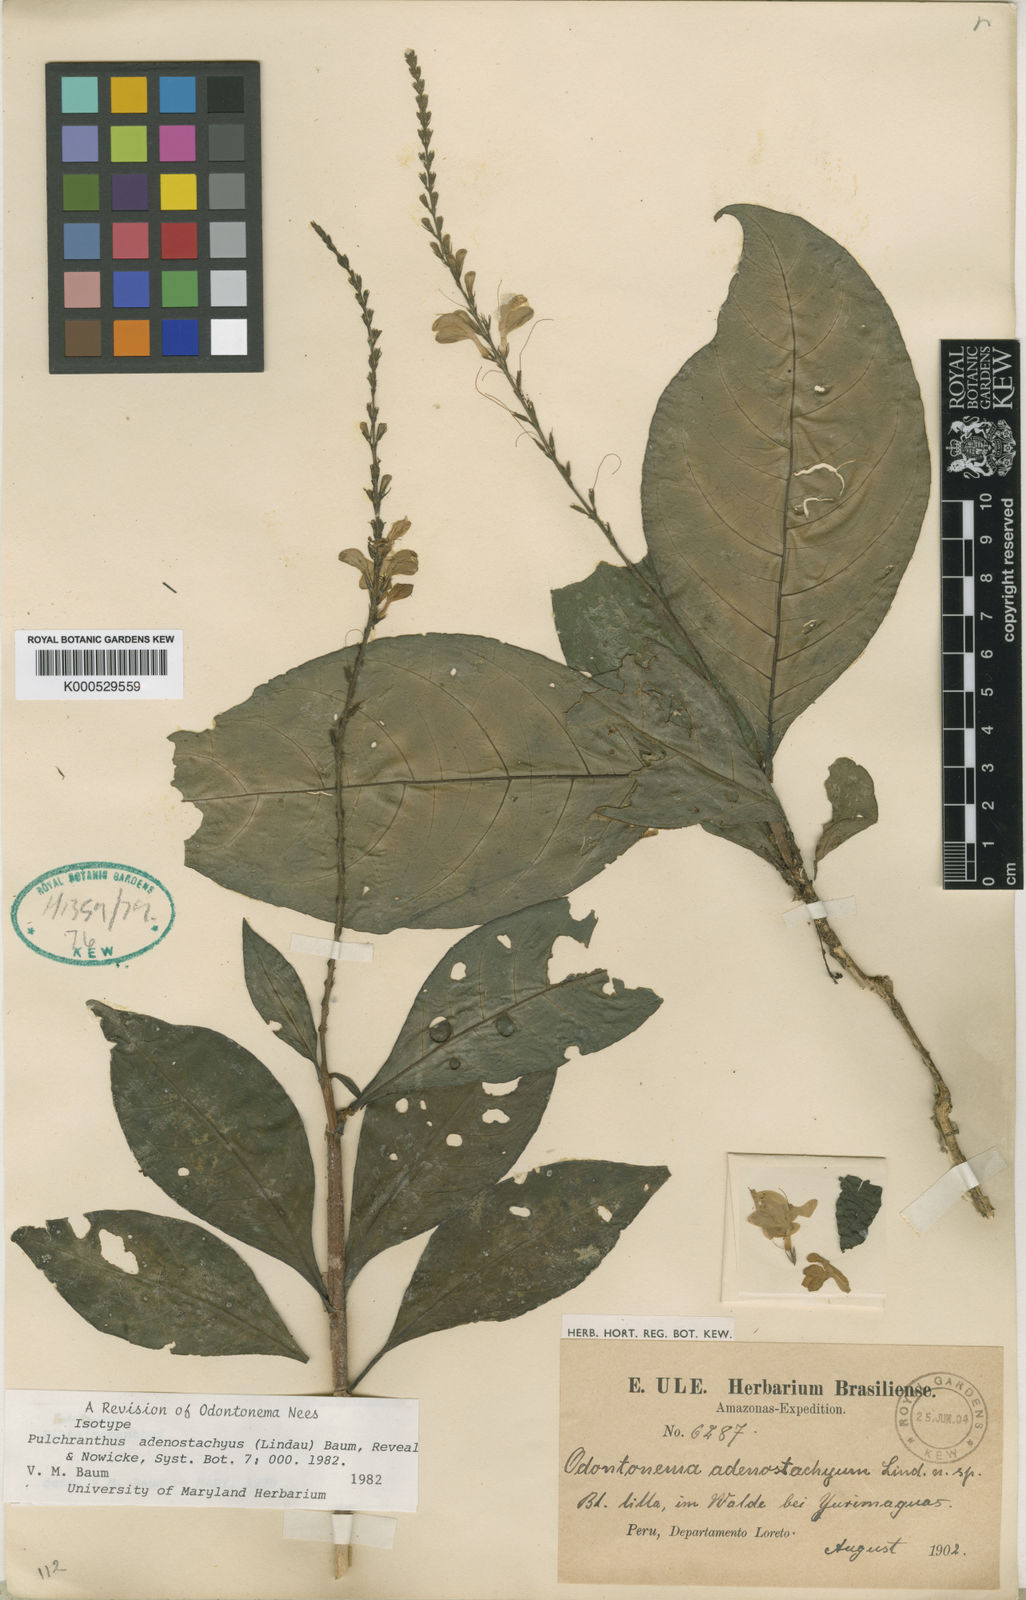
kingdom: Plantae
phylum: Tracheophyta
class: Magnoliopsida
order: Lamiales
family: Acanthaceae
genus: Pulchranthus
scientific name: Pulchranthus adenostachyus
